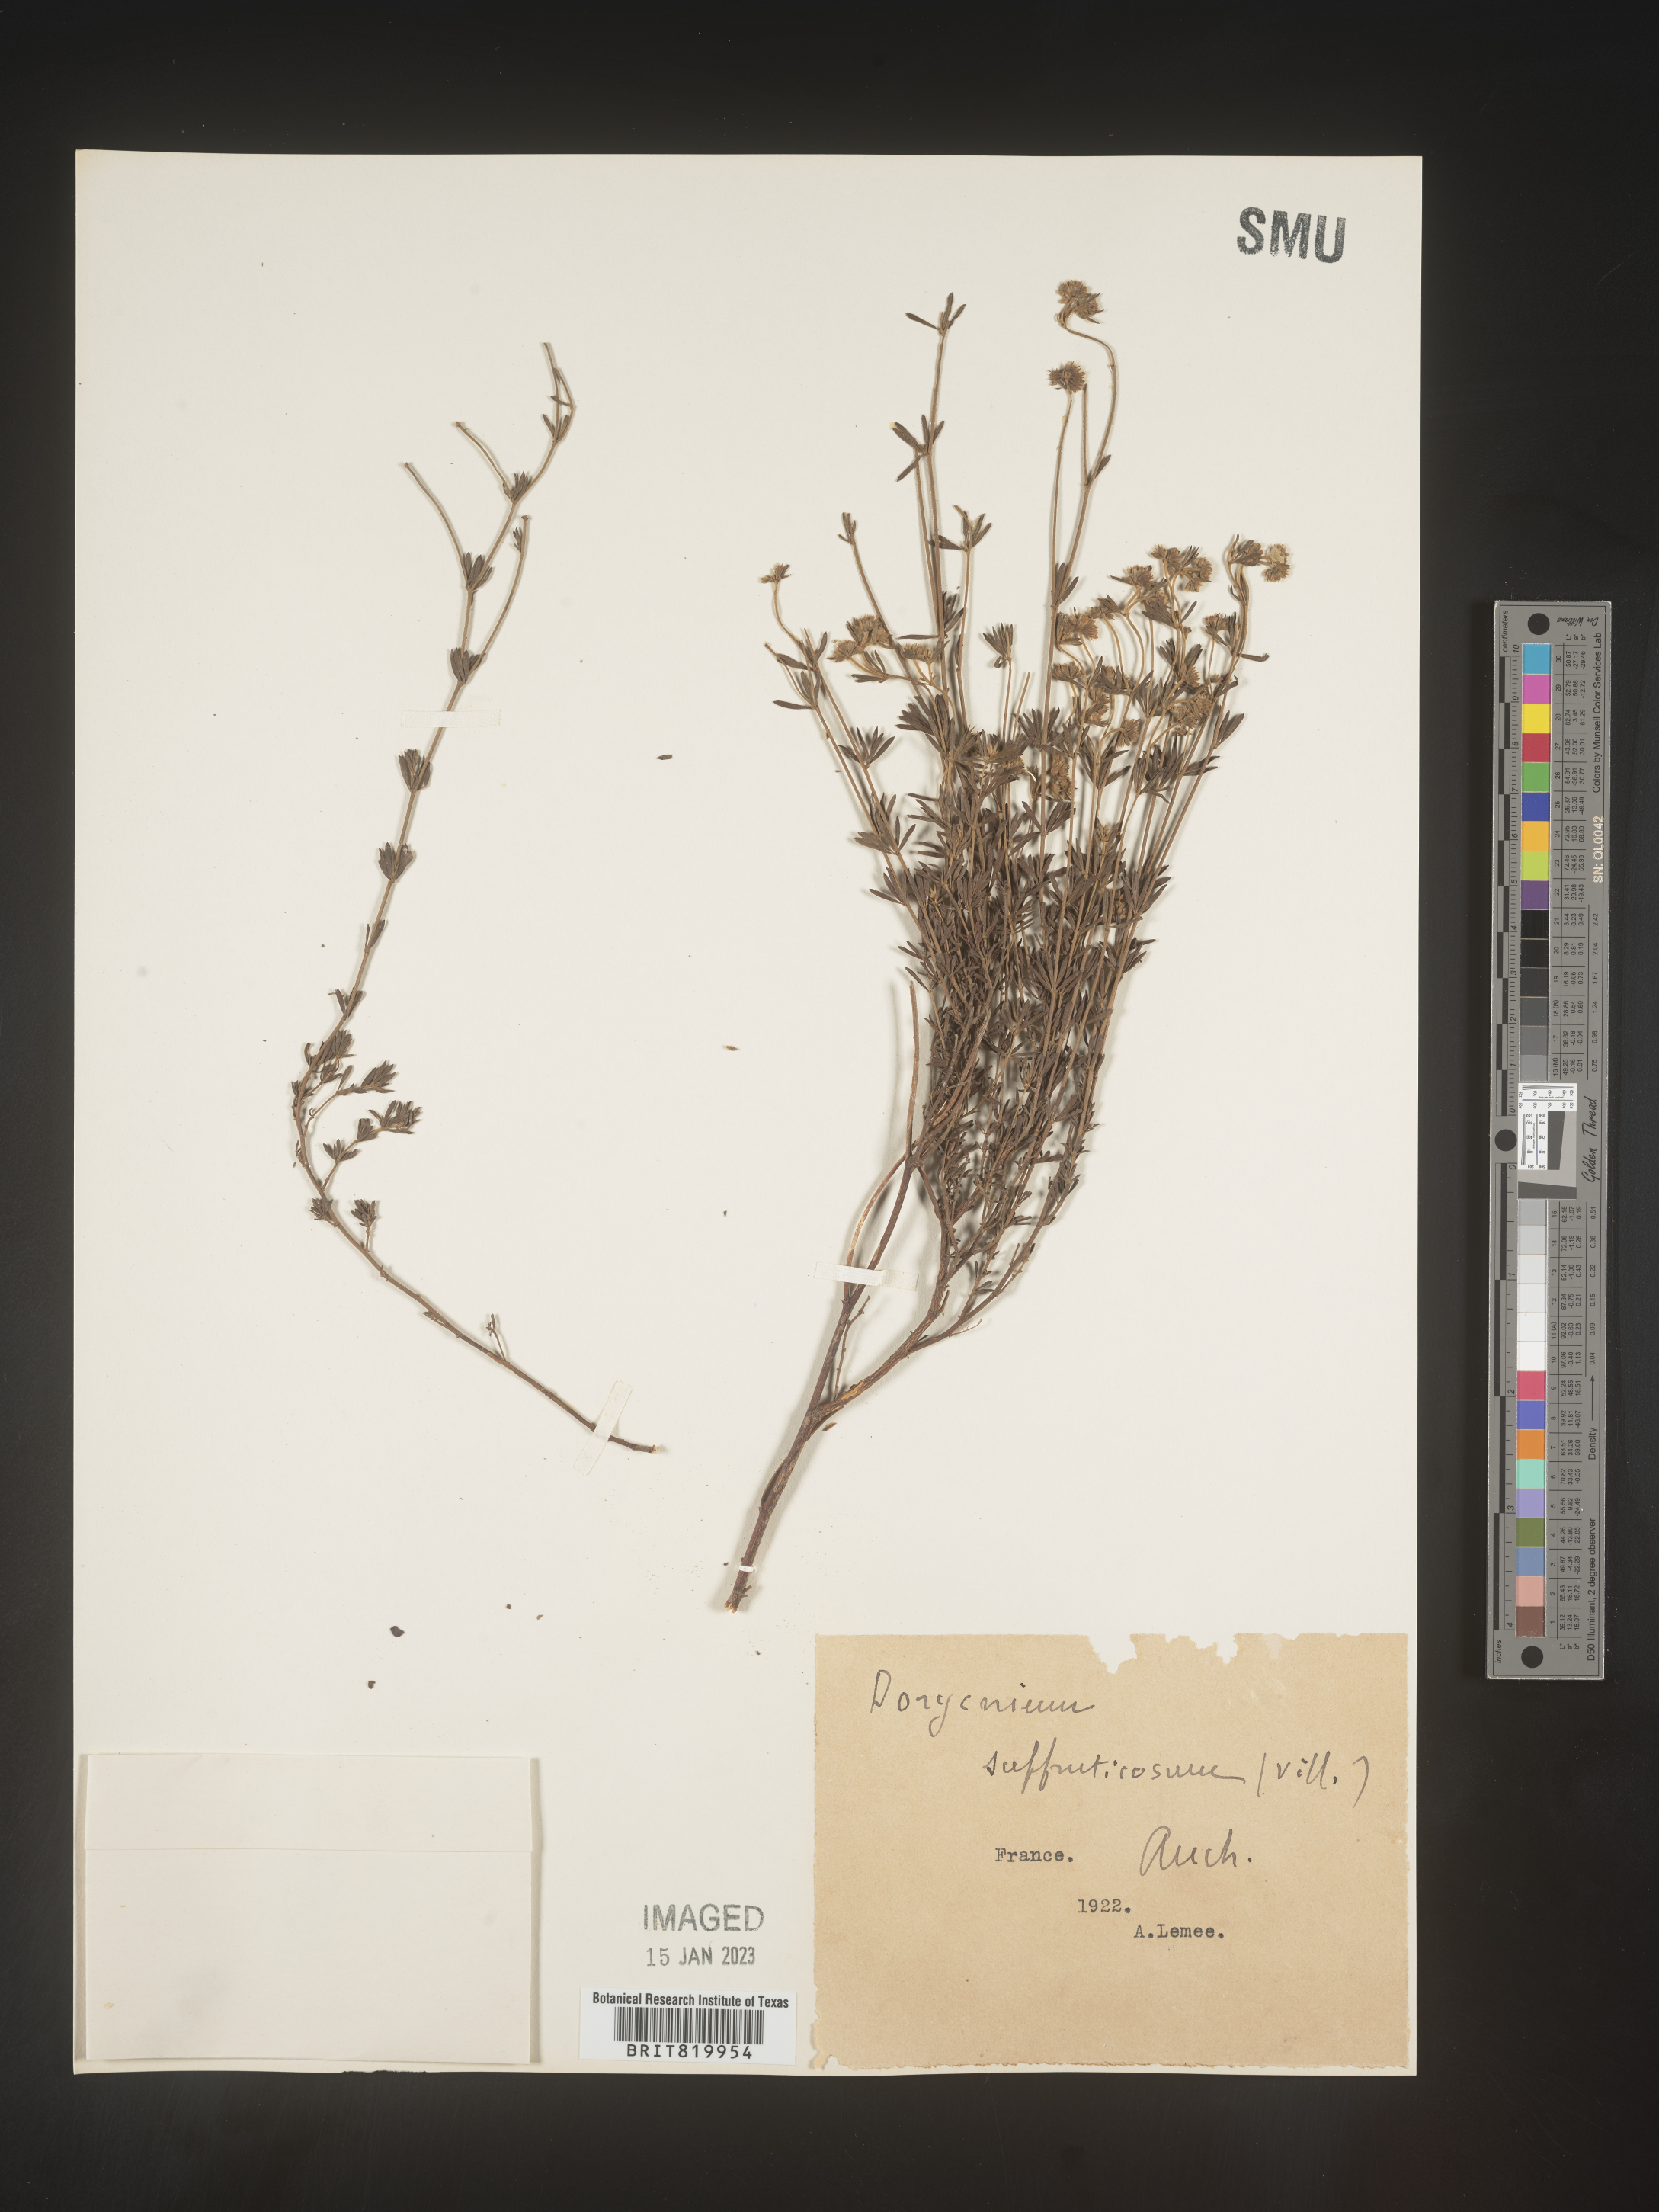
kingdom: Plantae
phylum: Tracheophyta
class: Magnoliopsida
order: Fabales
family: Fabaceae
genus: Lotus
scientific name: Lotus
